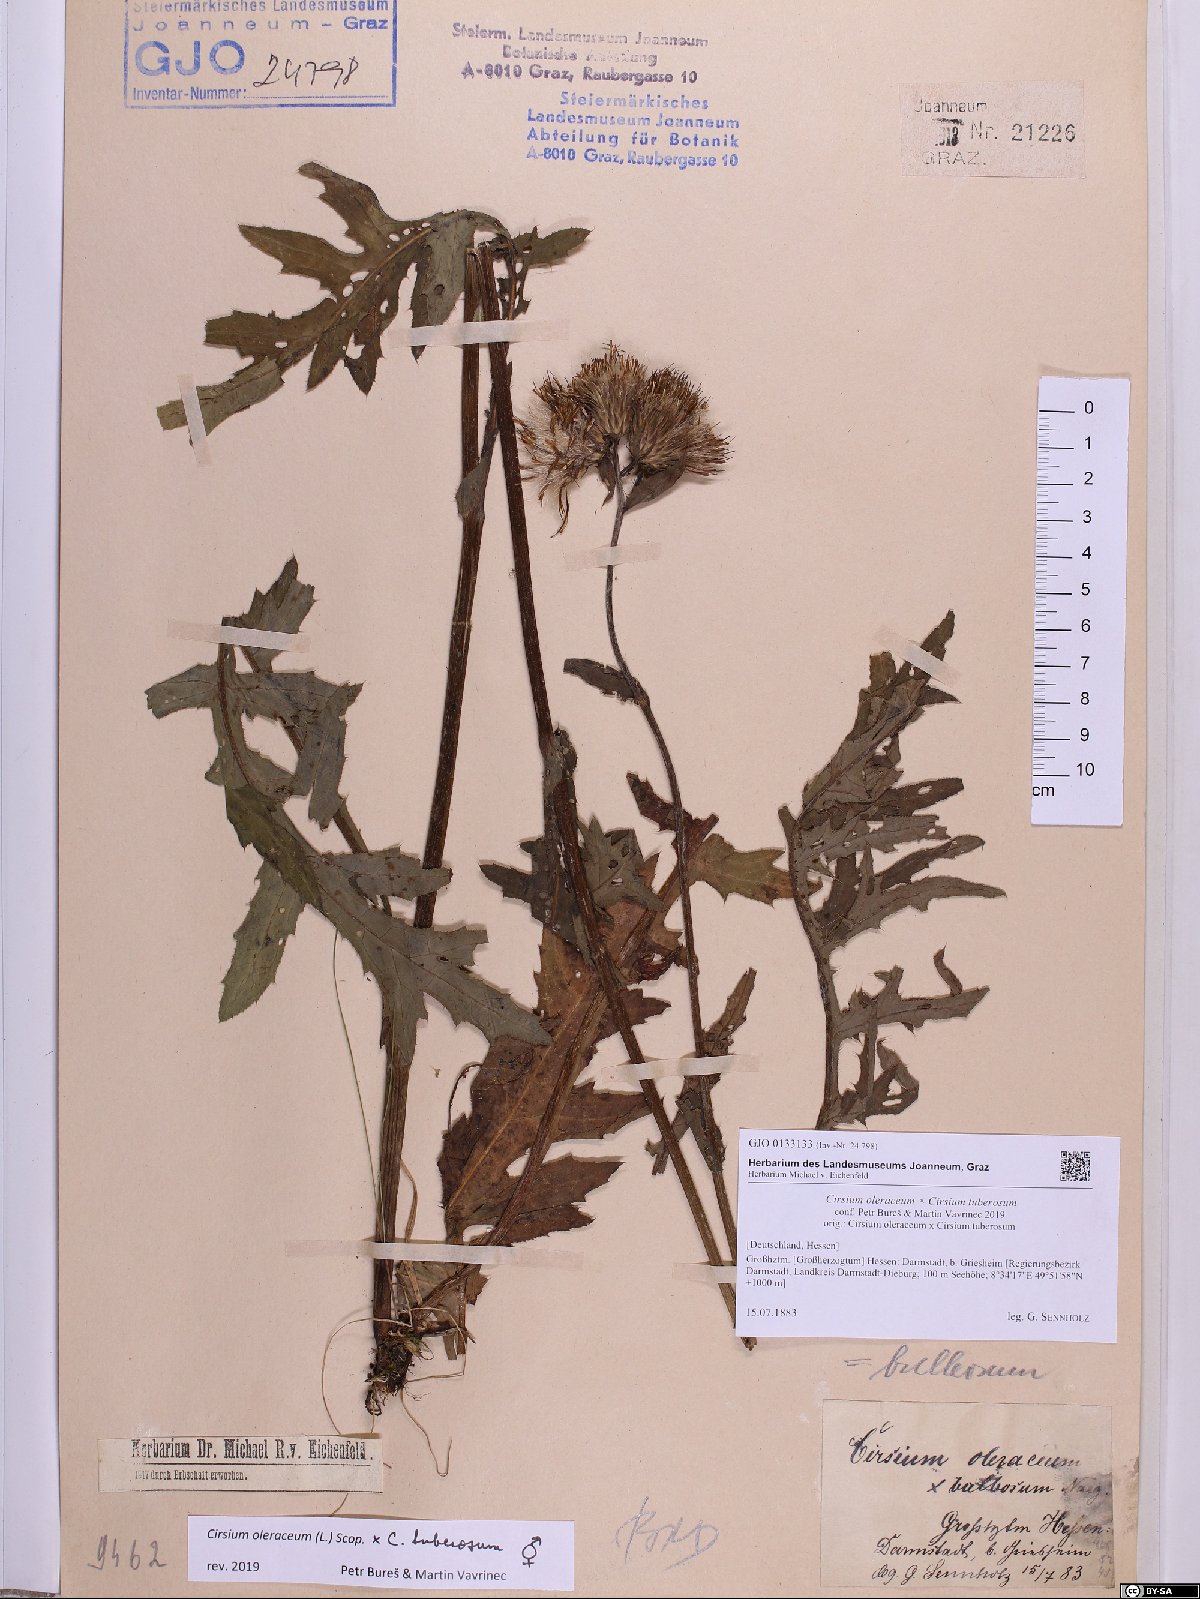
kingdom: Plantae
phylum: Tracheophyta
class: Magnoliopsida
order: Asterales
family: Asteraceae
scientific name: Asteraceae
